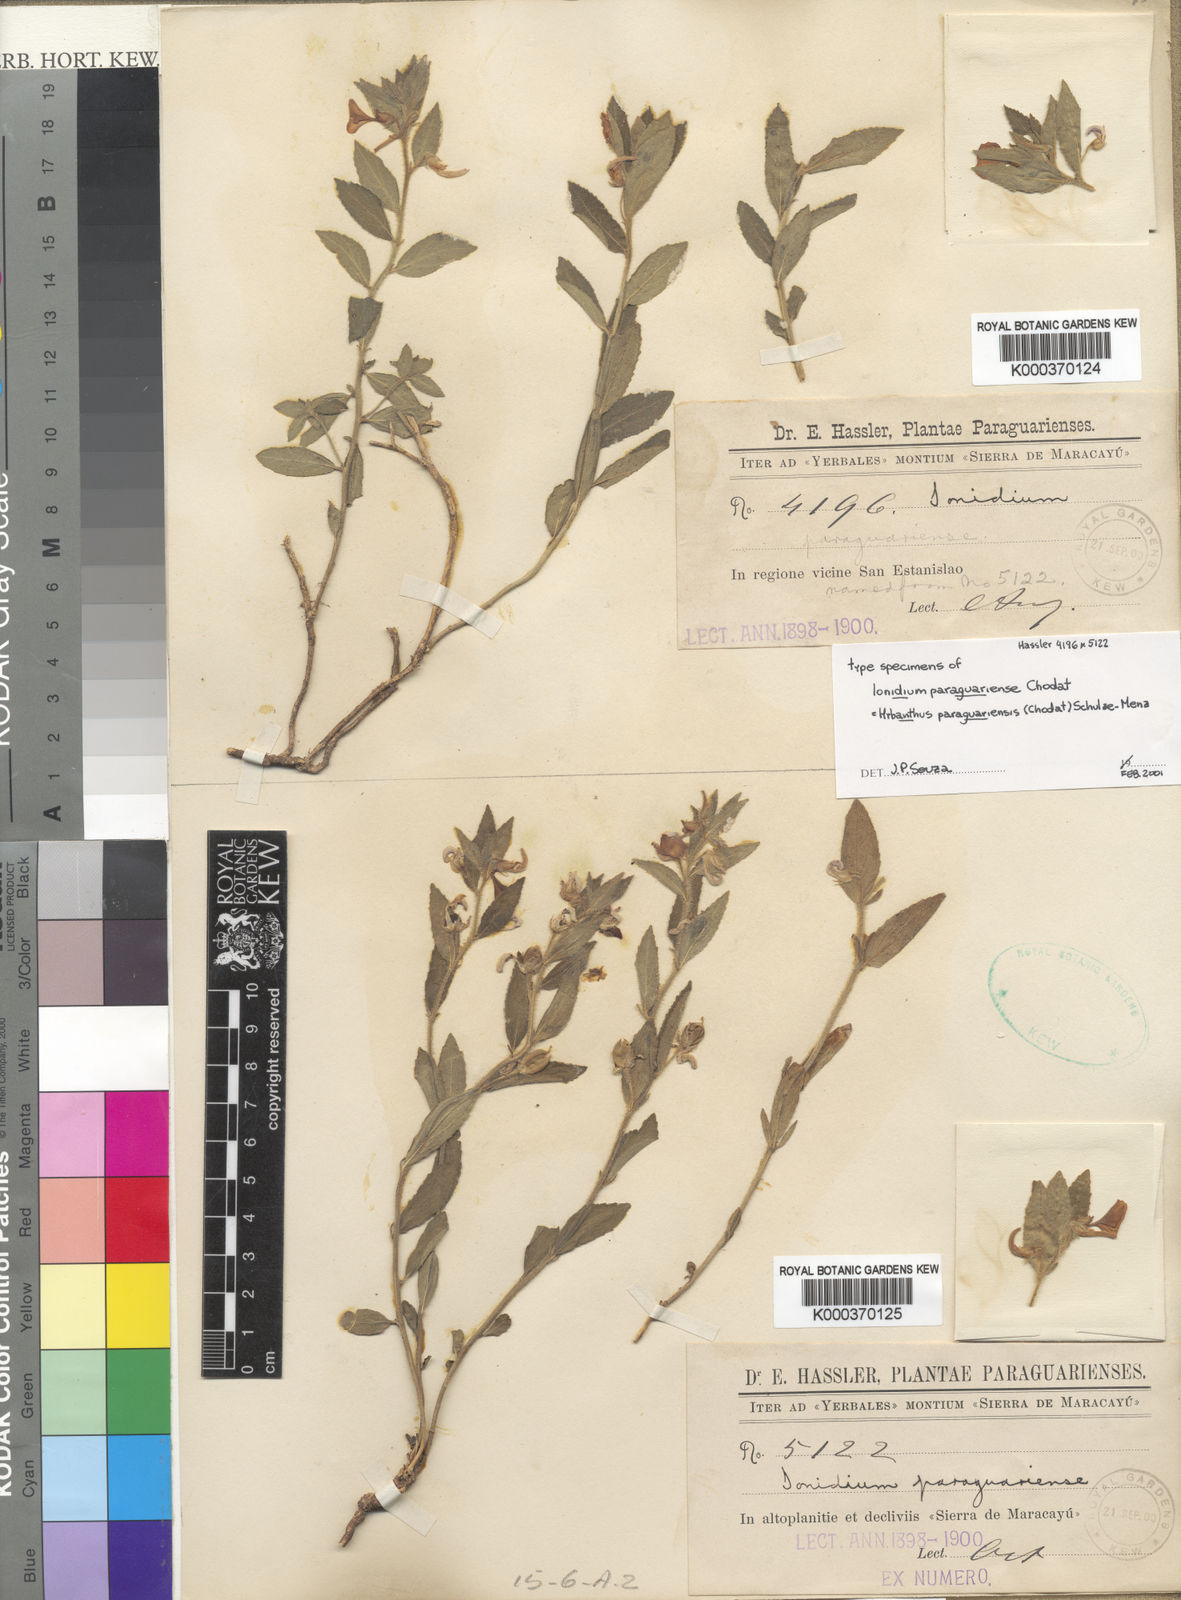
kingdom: Plantae
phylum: Tracheophyta
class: Magnoliopsida
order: Malpighiales
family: Violaceae
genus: Pombalia
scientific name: Pombalia paraguariensis
